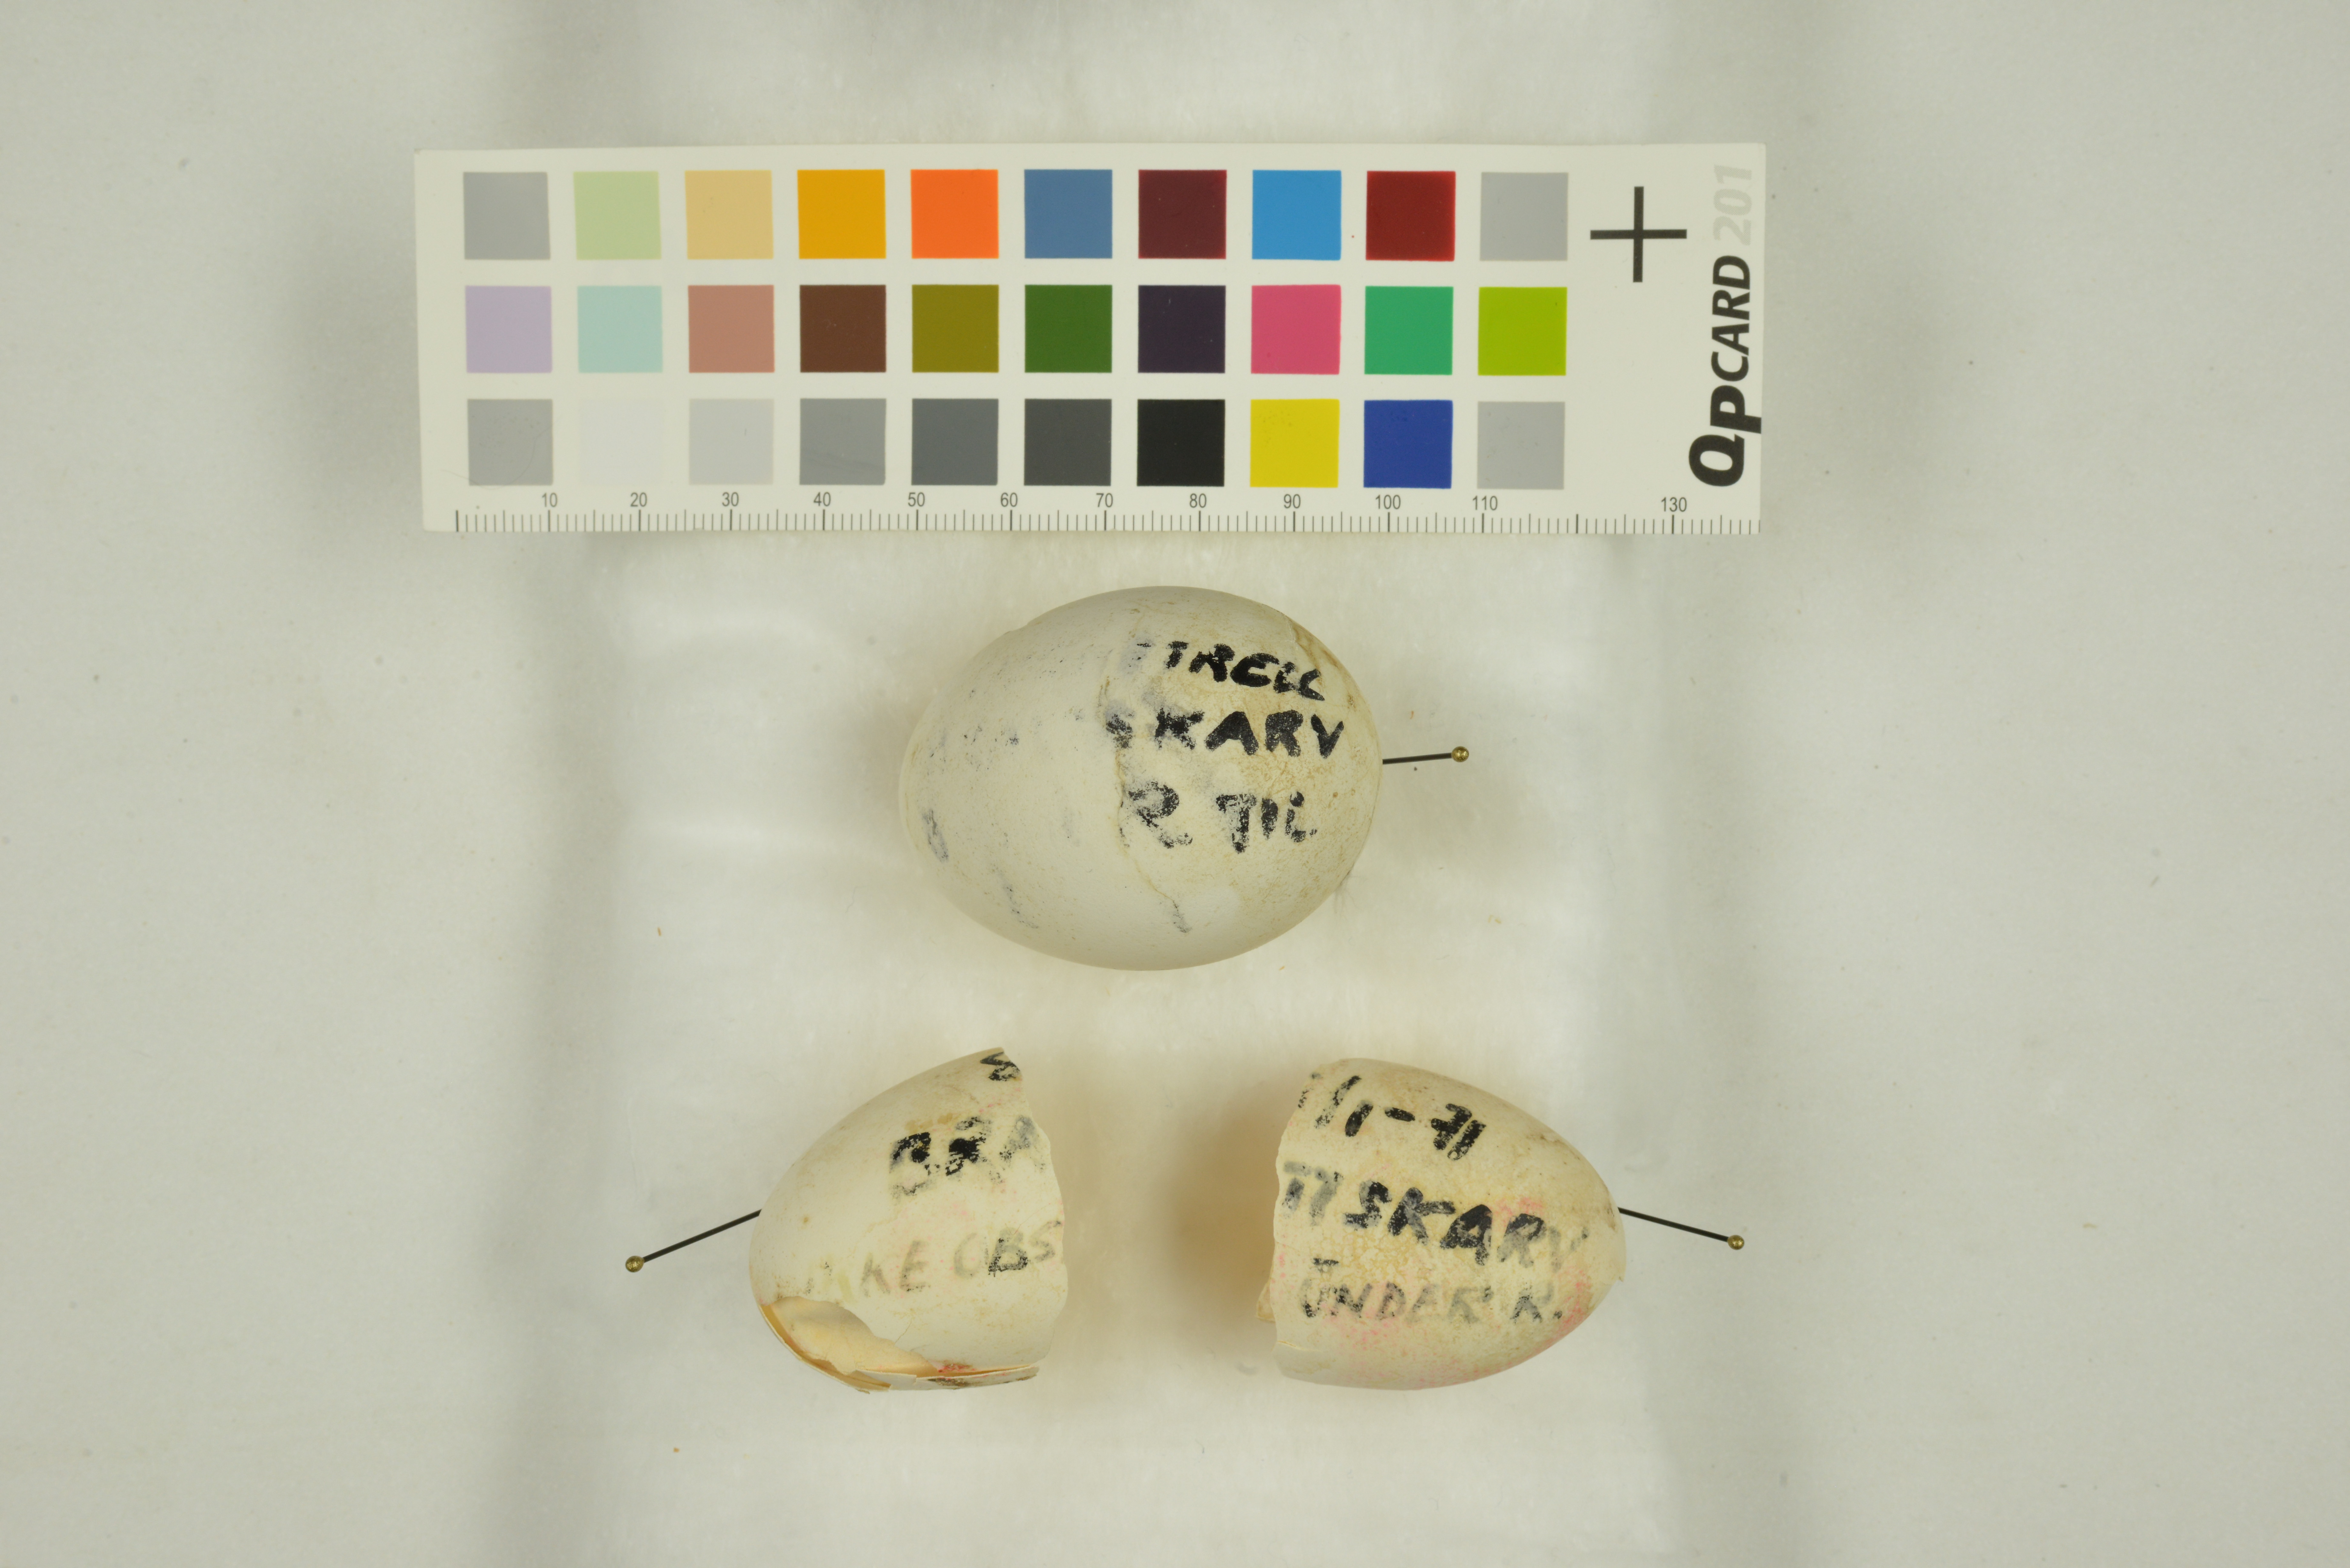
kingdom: Animalia
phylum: Chordata
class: Aves
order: Procellariiformes
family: Procellariidae
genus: Pagodroma
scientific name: Pagodroma nivea
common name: Snow petrel
